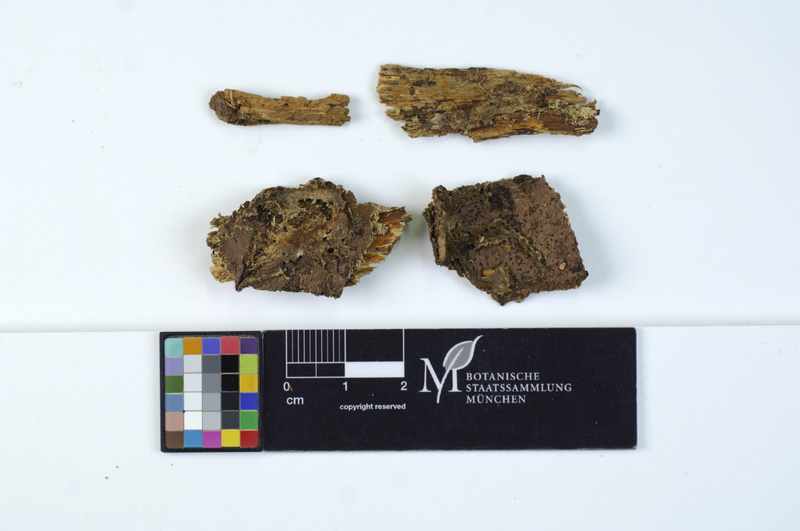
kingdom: Plantae
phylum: Tracheophyta
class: Pinopsida
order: Pinales
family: Pinaceae
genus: Picea
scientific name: Picea
